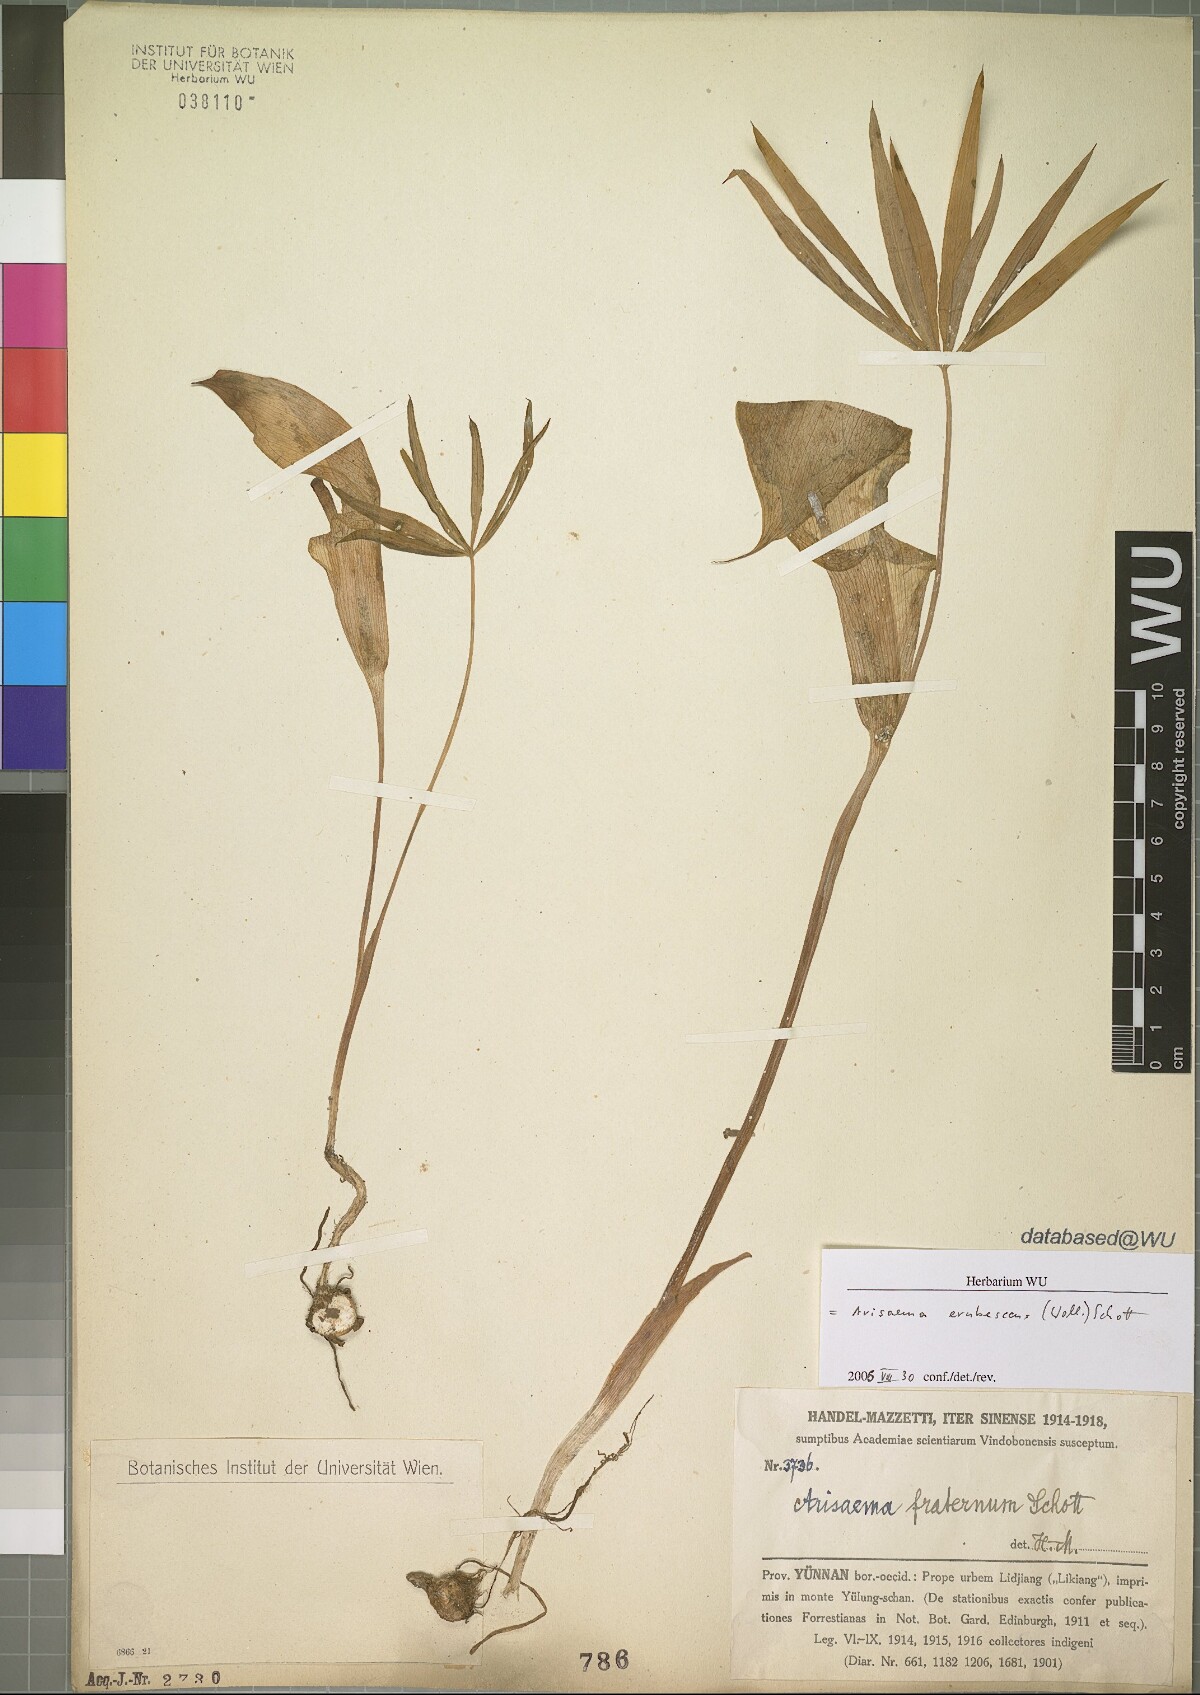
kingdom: Plantae
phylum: Tracheophyta
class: Liliopsida
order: Alismatales
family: Araceae
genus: Arisaema
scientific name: Arisaema erubescens
